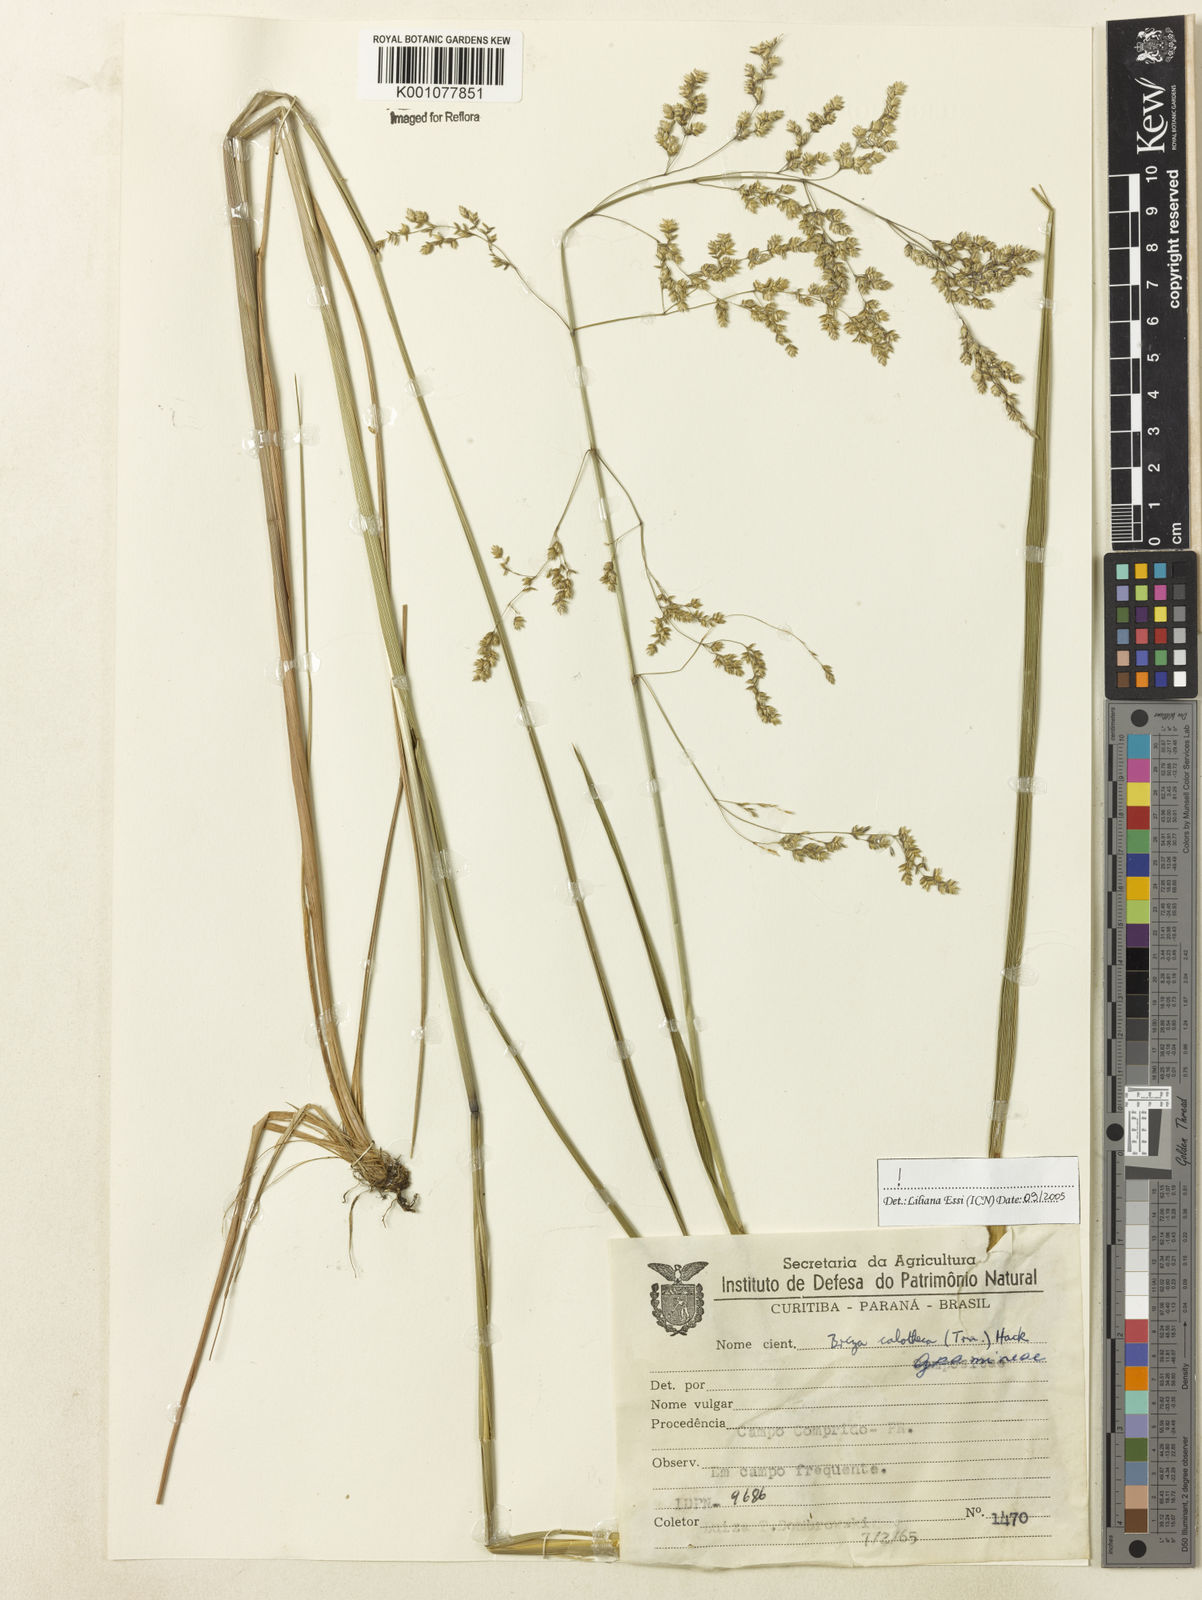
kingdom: Plantae
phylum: Tracheophyta
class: Liliopsida
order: Poales
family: Poaceae
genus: Poidium
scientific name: Poidium calotheca
